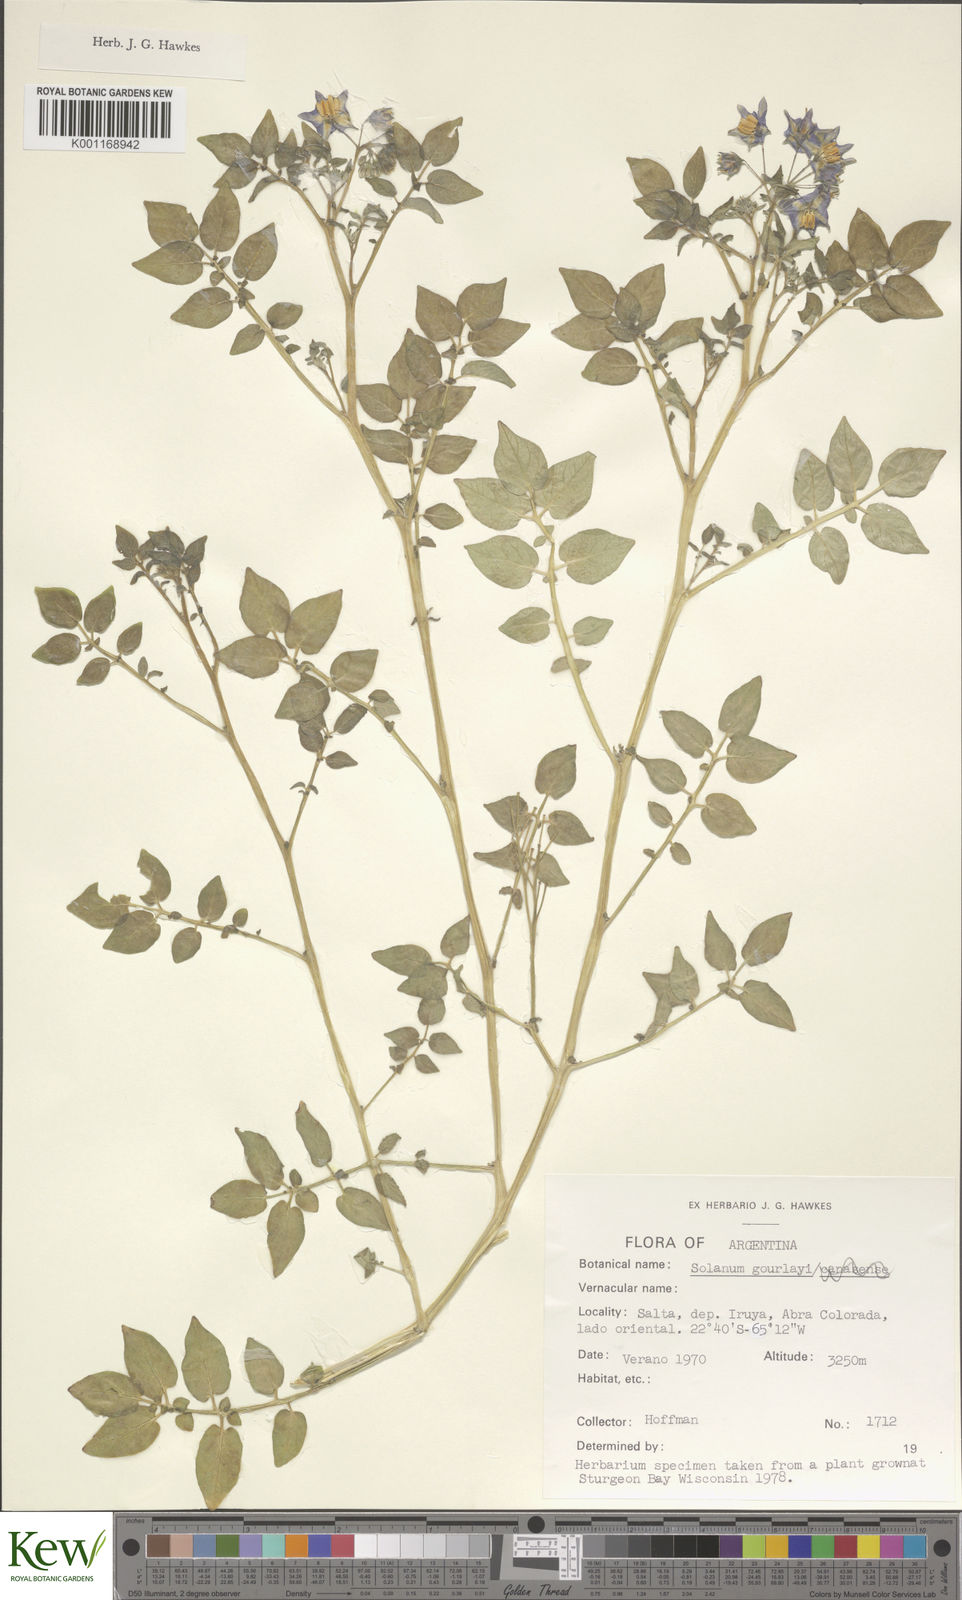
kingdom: Plantae
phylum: Tracheophyta
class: Magnoliopsida
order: Solanales
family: Solanaceae
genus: Solanum
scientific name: Solanum brevicaule
